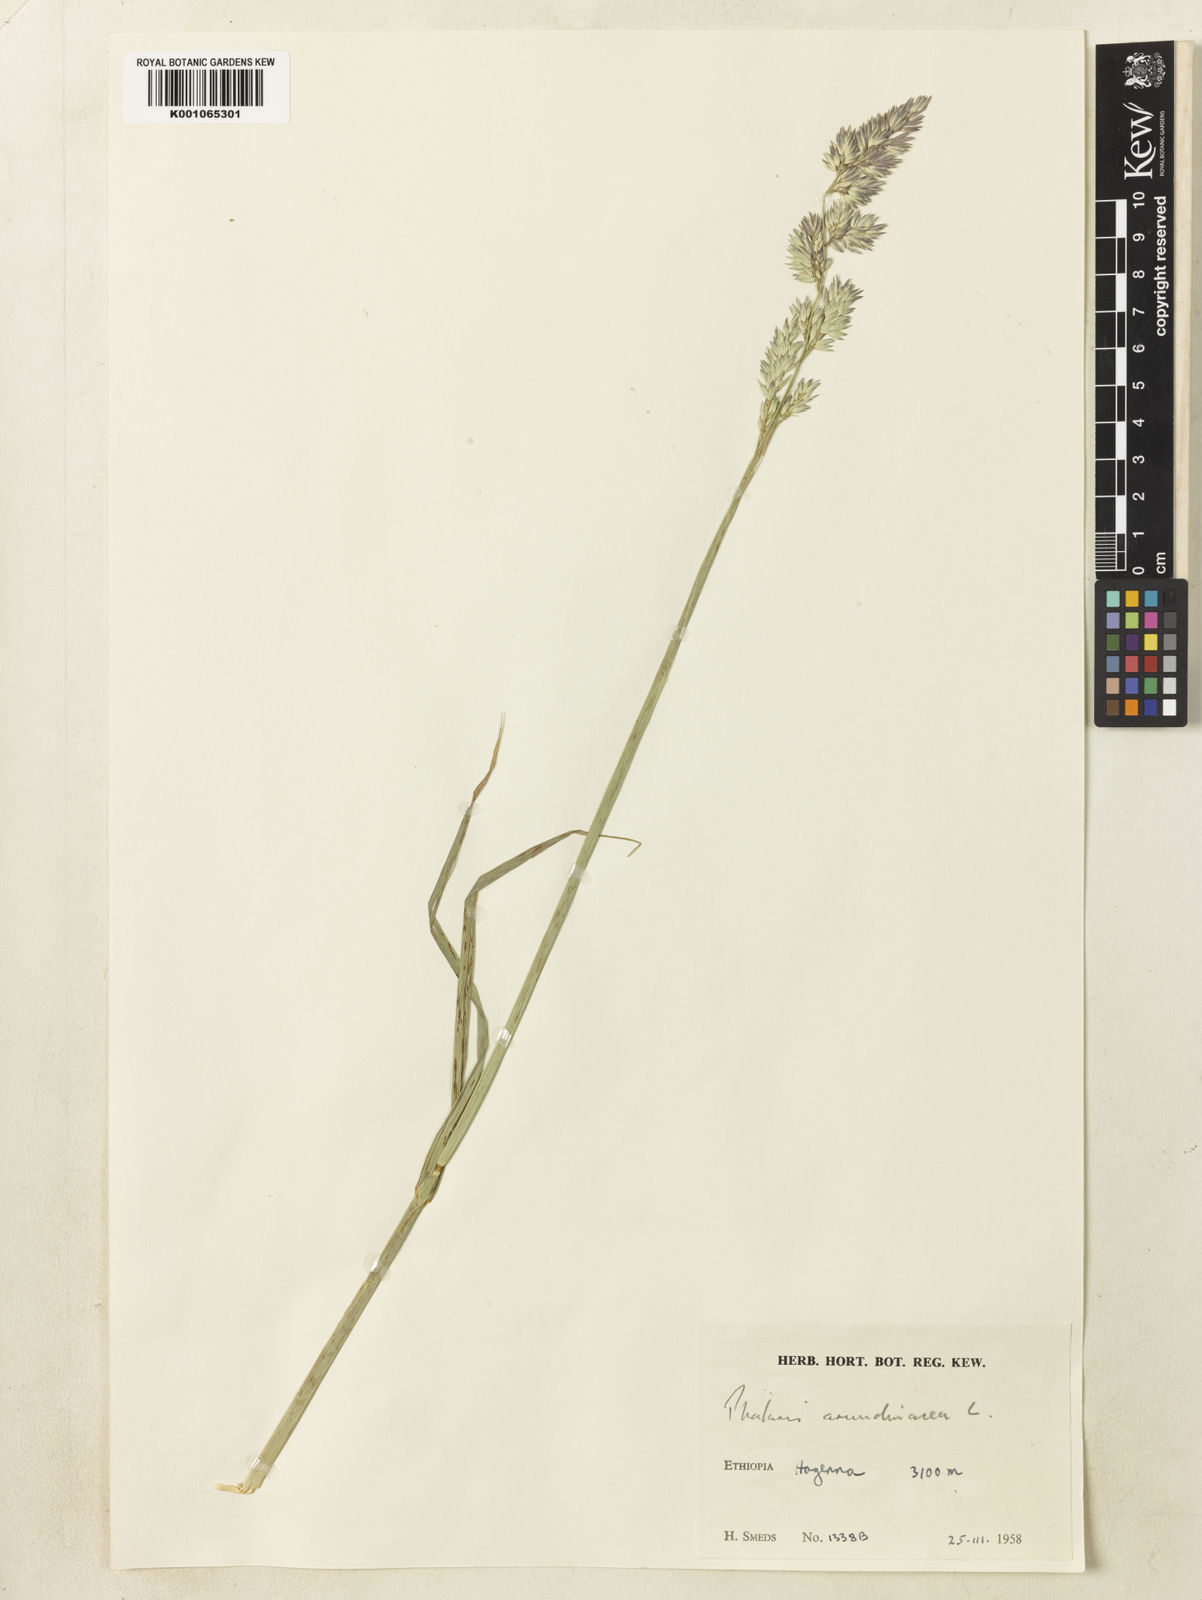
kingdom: Plantae
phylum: Tracheophyta
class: Liliopsida
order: Poales
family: Poaceae
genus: Phalaris
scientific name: Phalaris arundinacea
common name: Reed canary-grass
